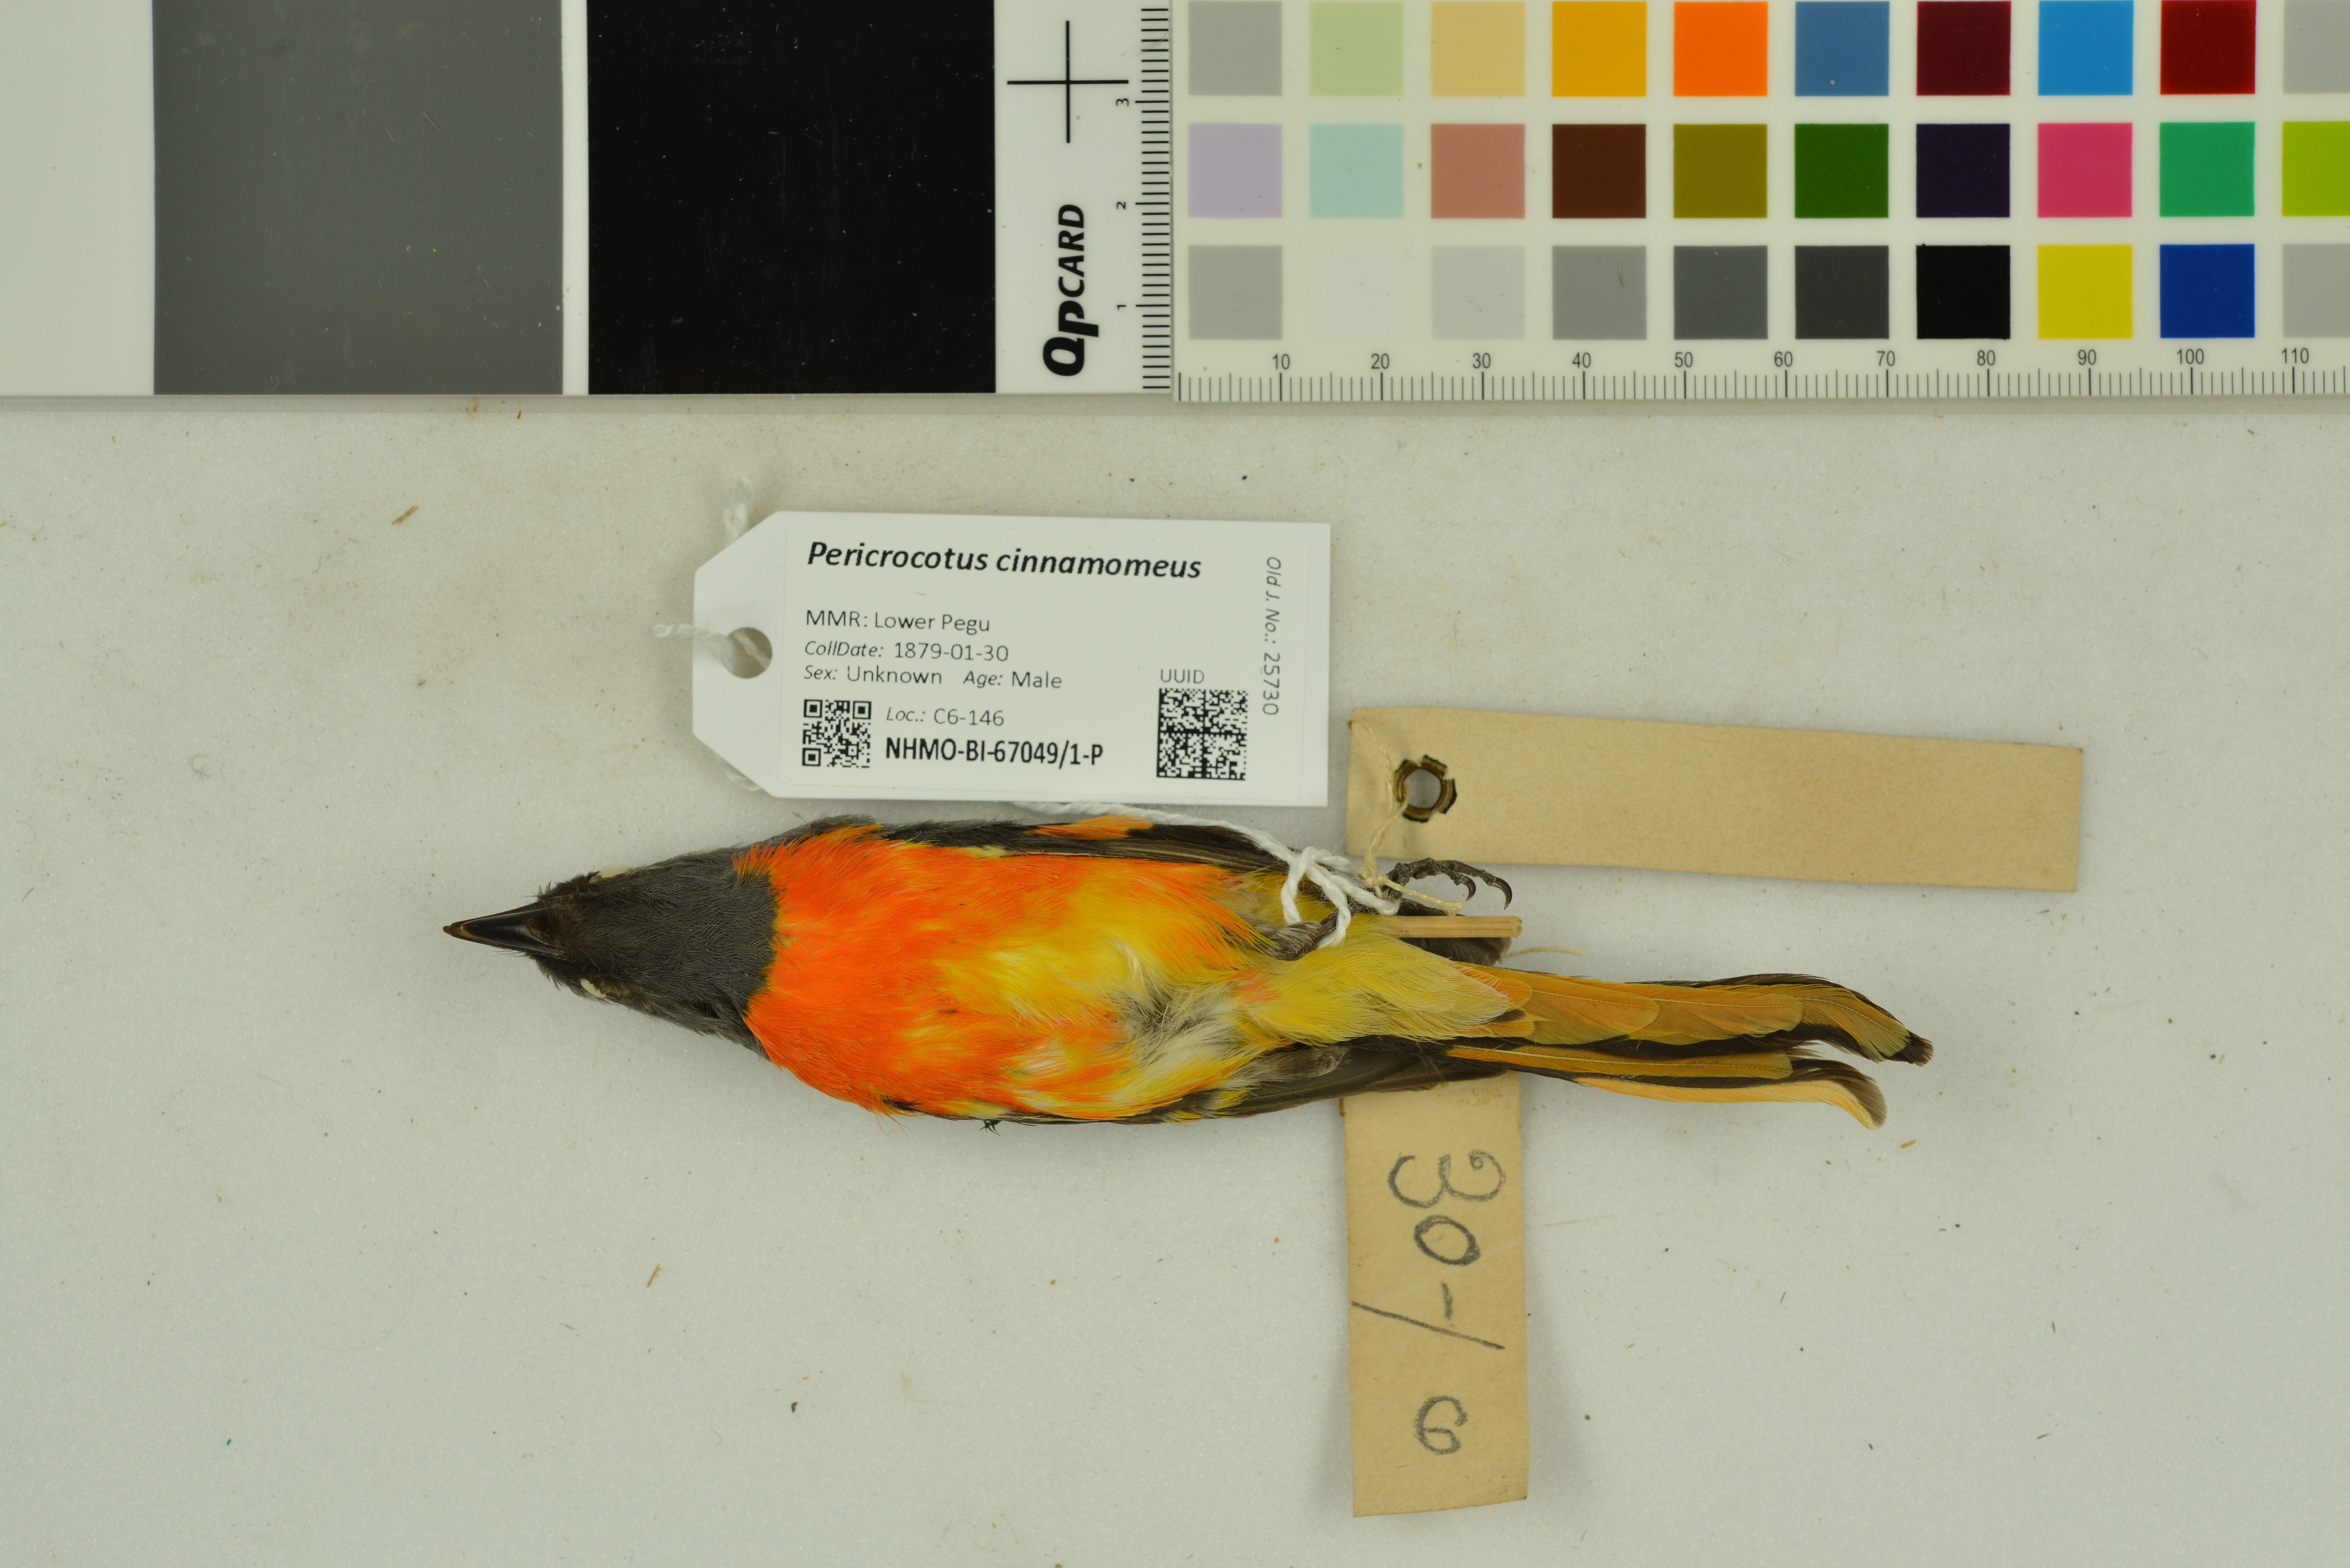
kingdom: Animalia
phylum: Chordata
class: Aves
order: Passeriformes
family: Campephagidae
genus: Pericrocotus
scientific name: Pericrocotus cinnamomeus
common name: Small minivet
